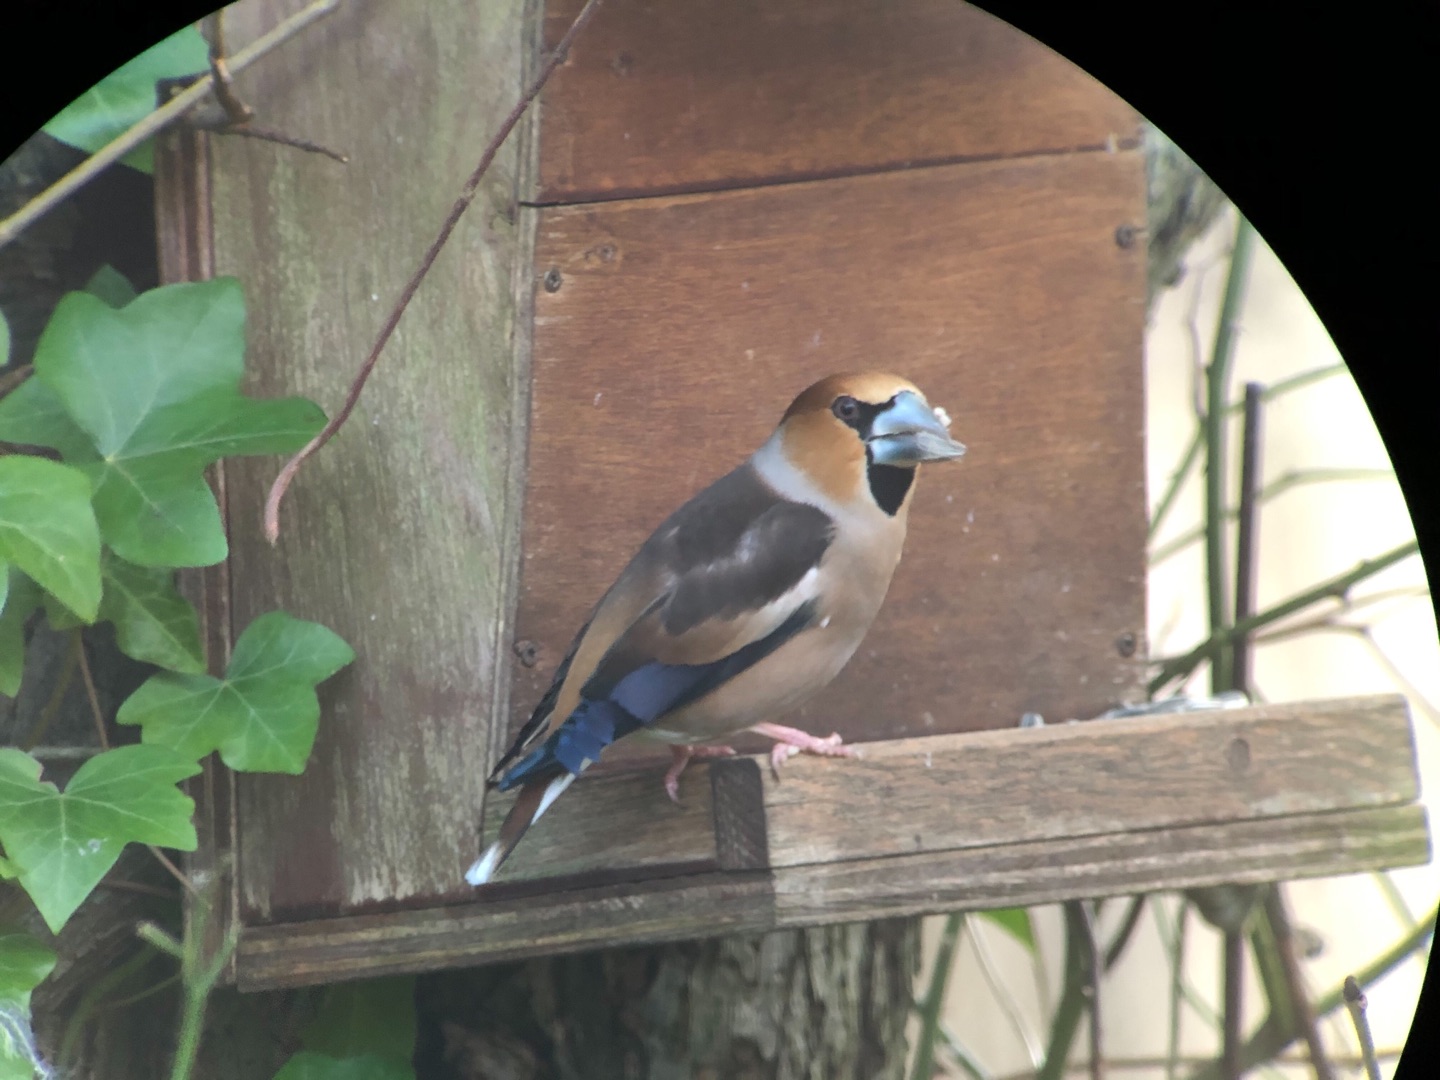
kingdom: Animalia
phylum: Chordata
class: Aves
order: Passeriformes
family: Fringillidae
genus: Coccothraustes
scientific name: Coccothraustes coccothraustes
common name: Kernebider
